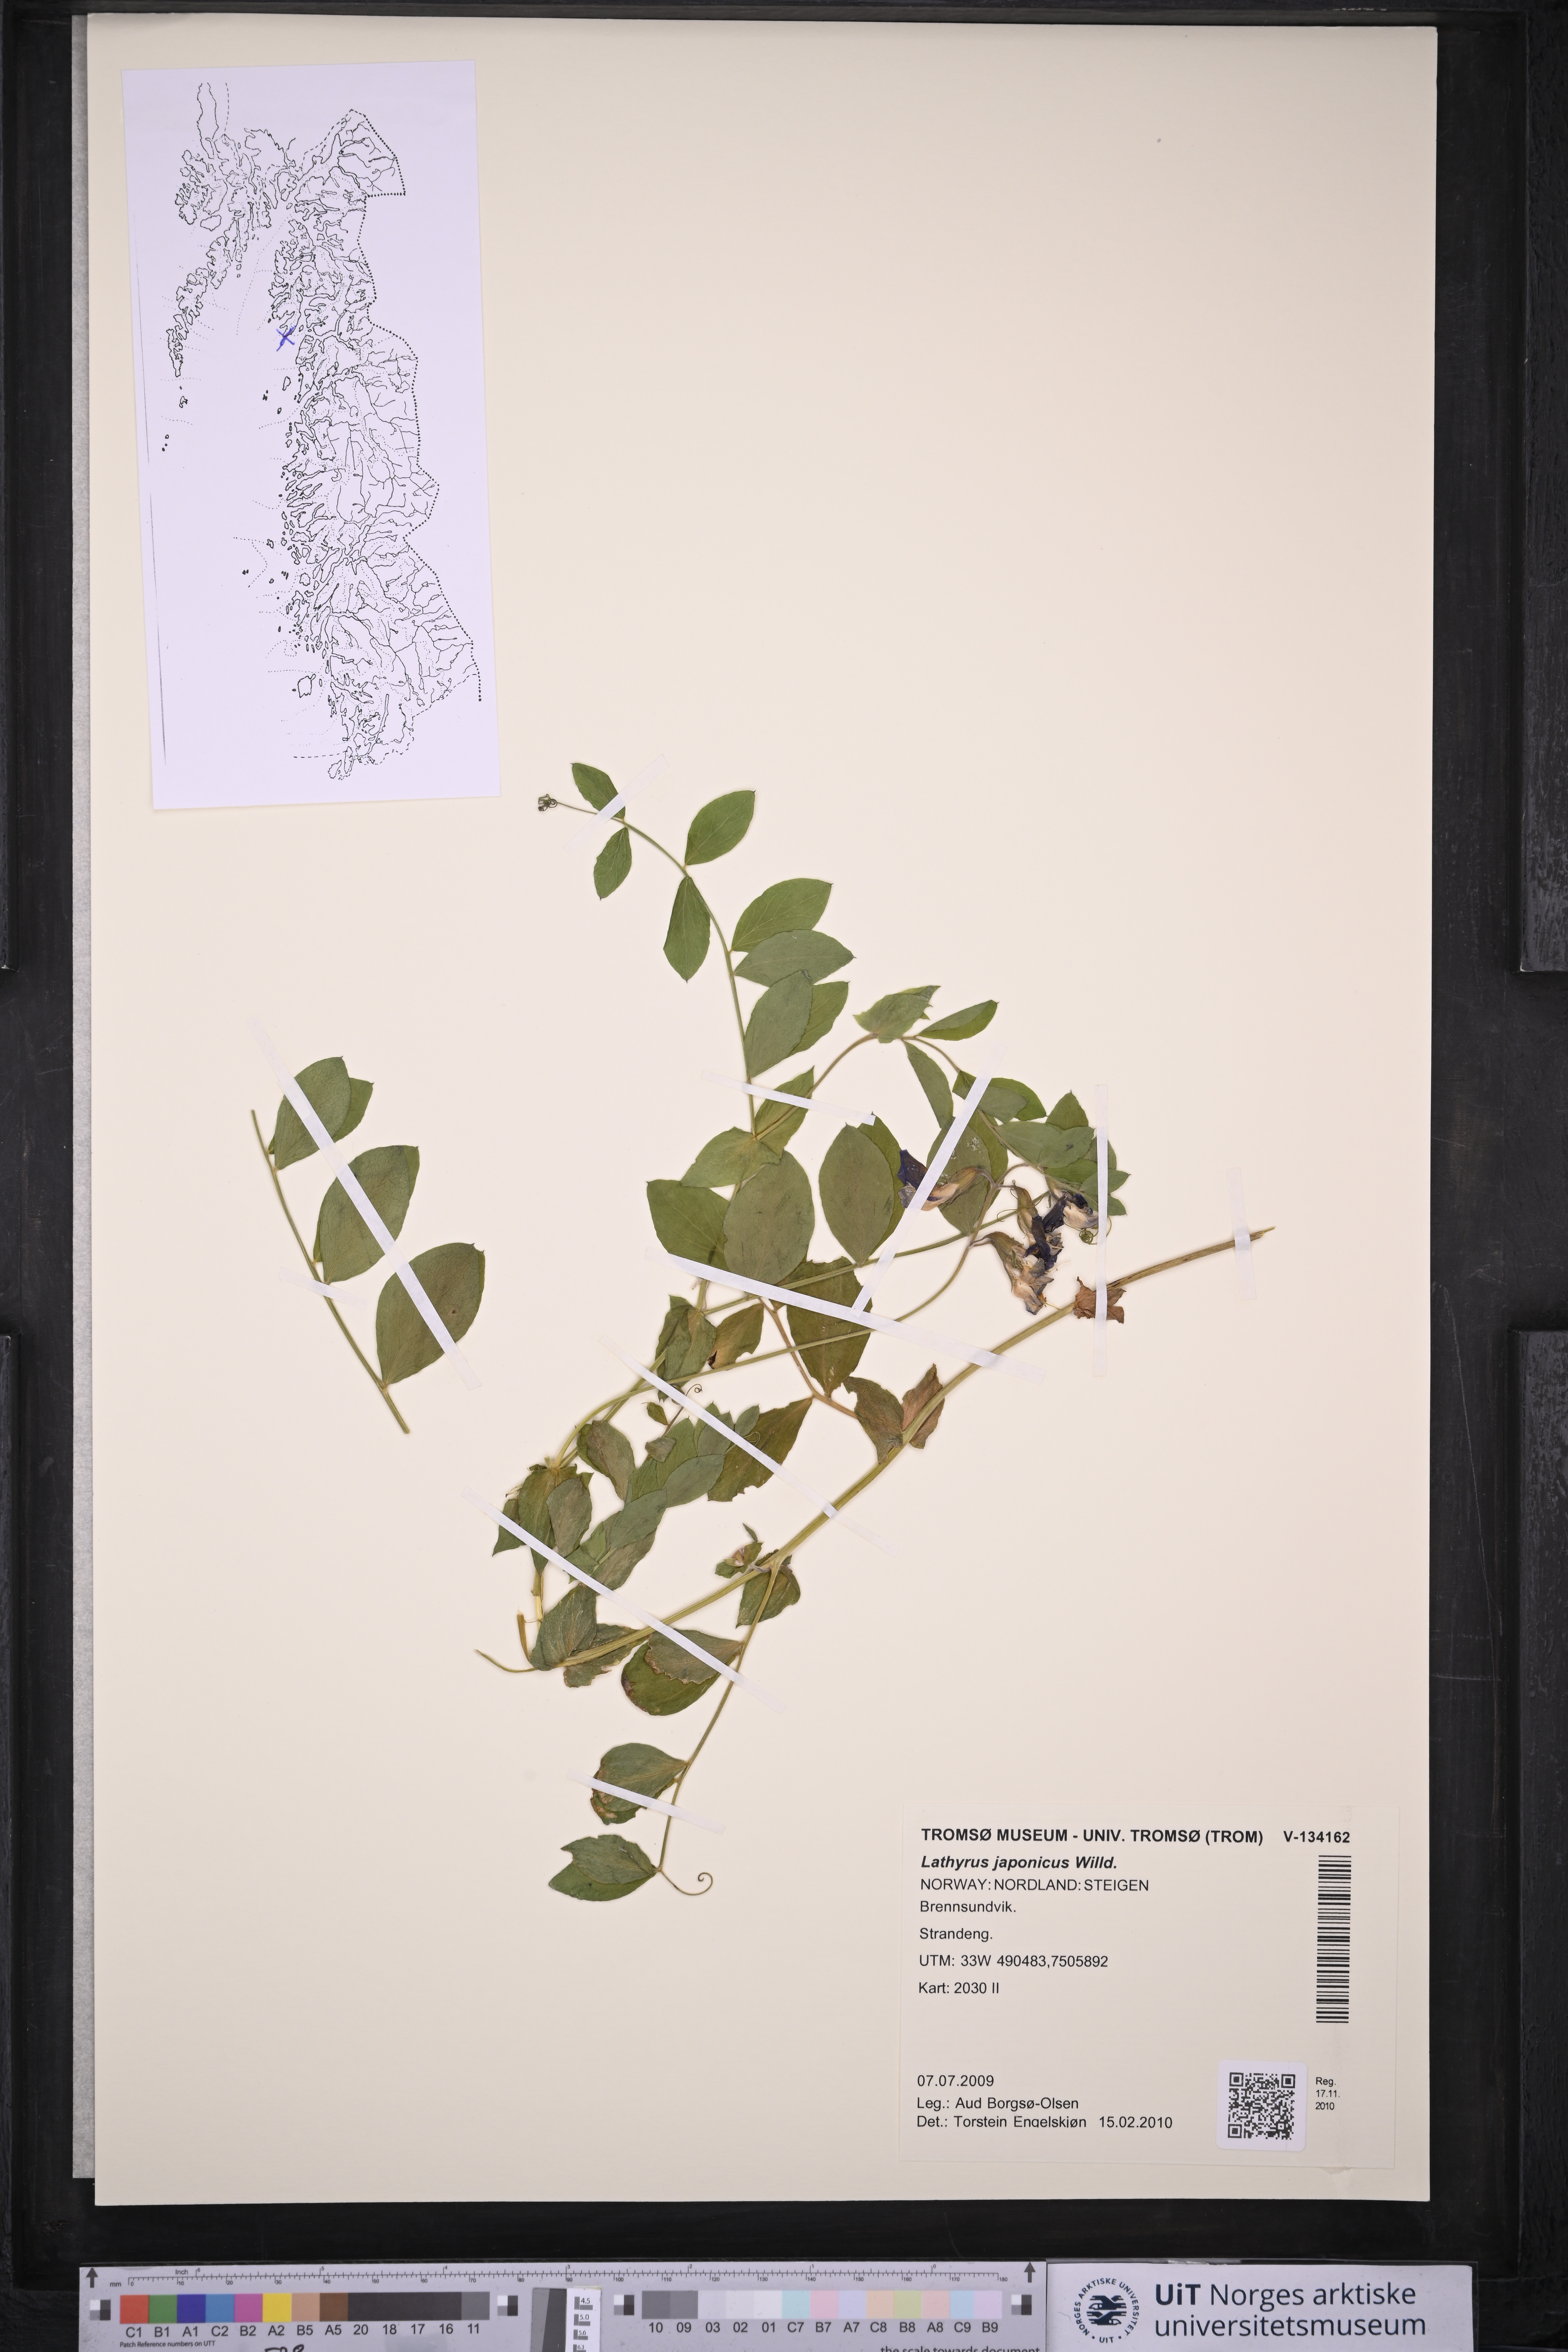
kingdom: Plantae
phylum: Tracheophyta
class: Magnoliopsida
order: Fabales
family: Fabaceae
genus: Lathyrus
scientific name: Lathyrus japonicus
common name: Sea pea
